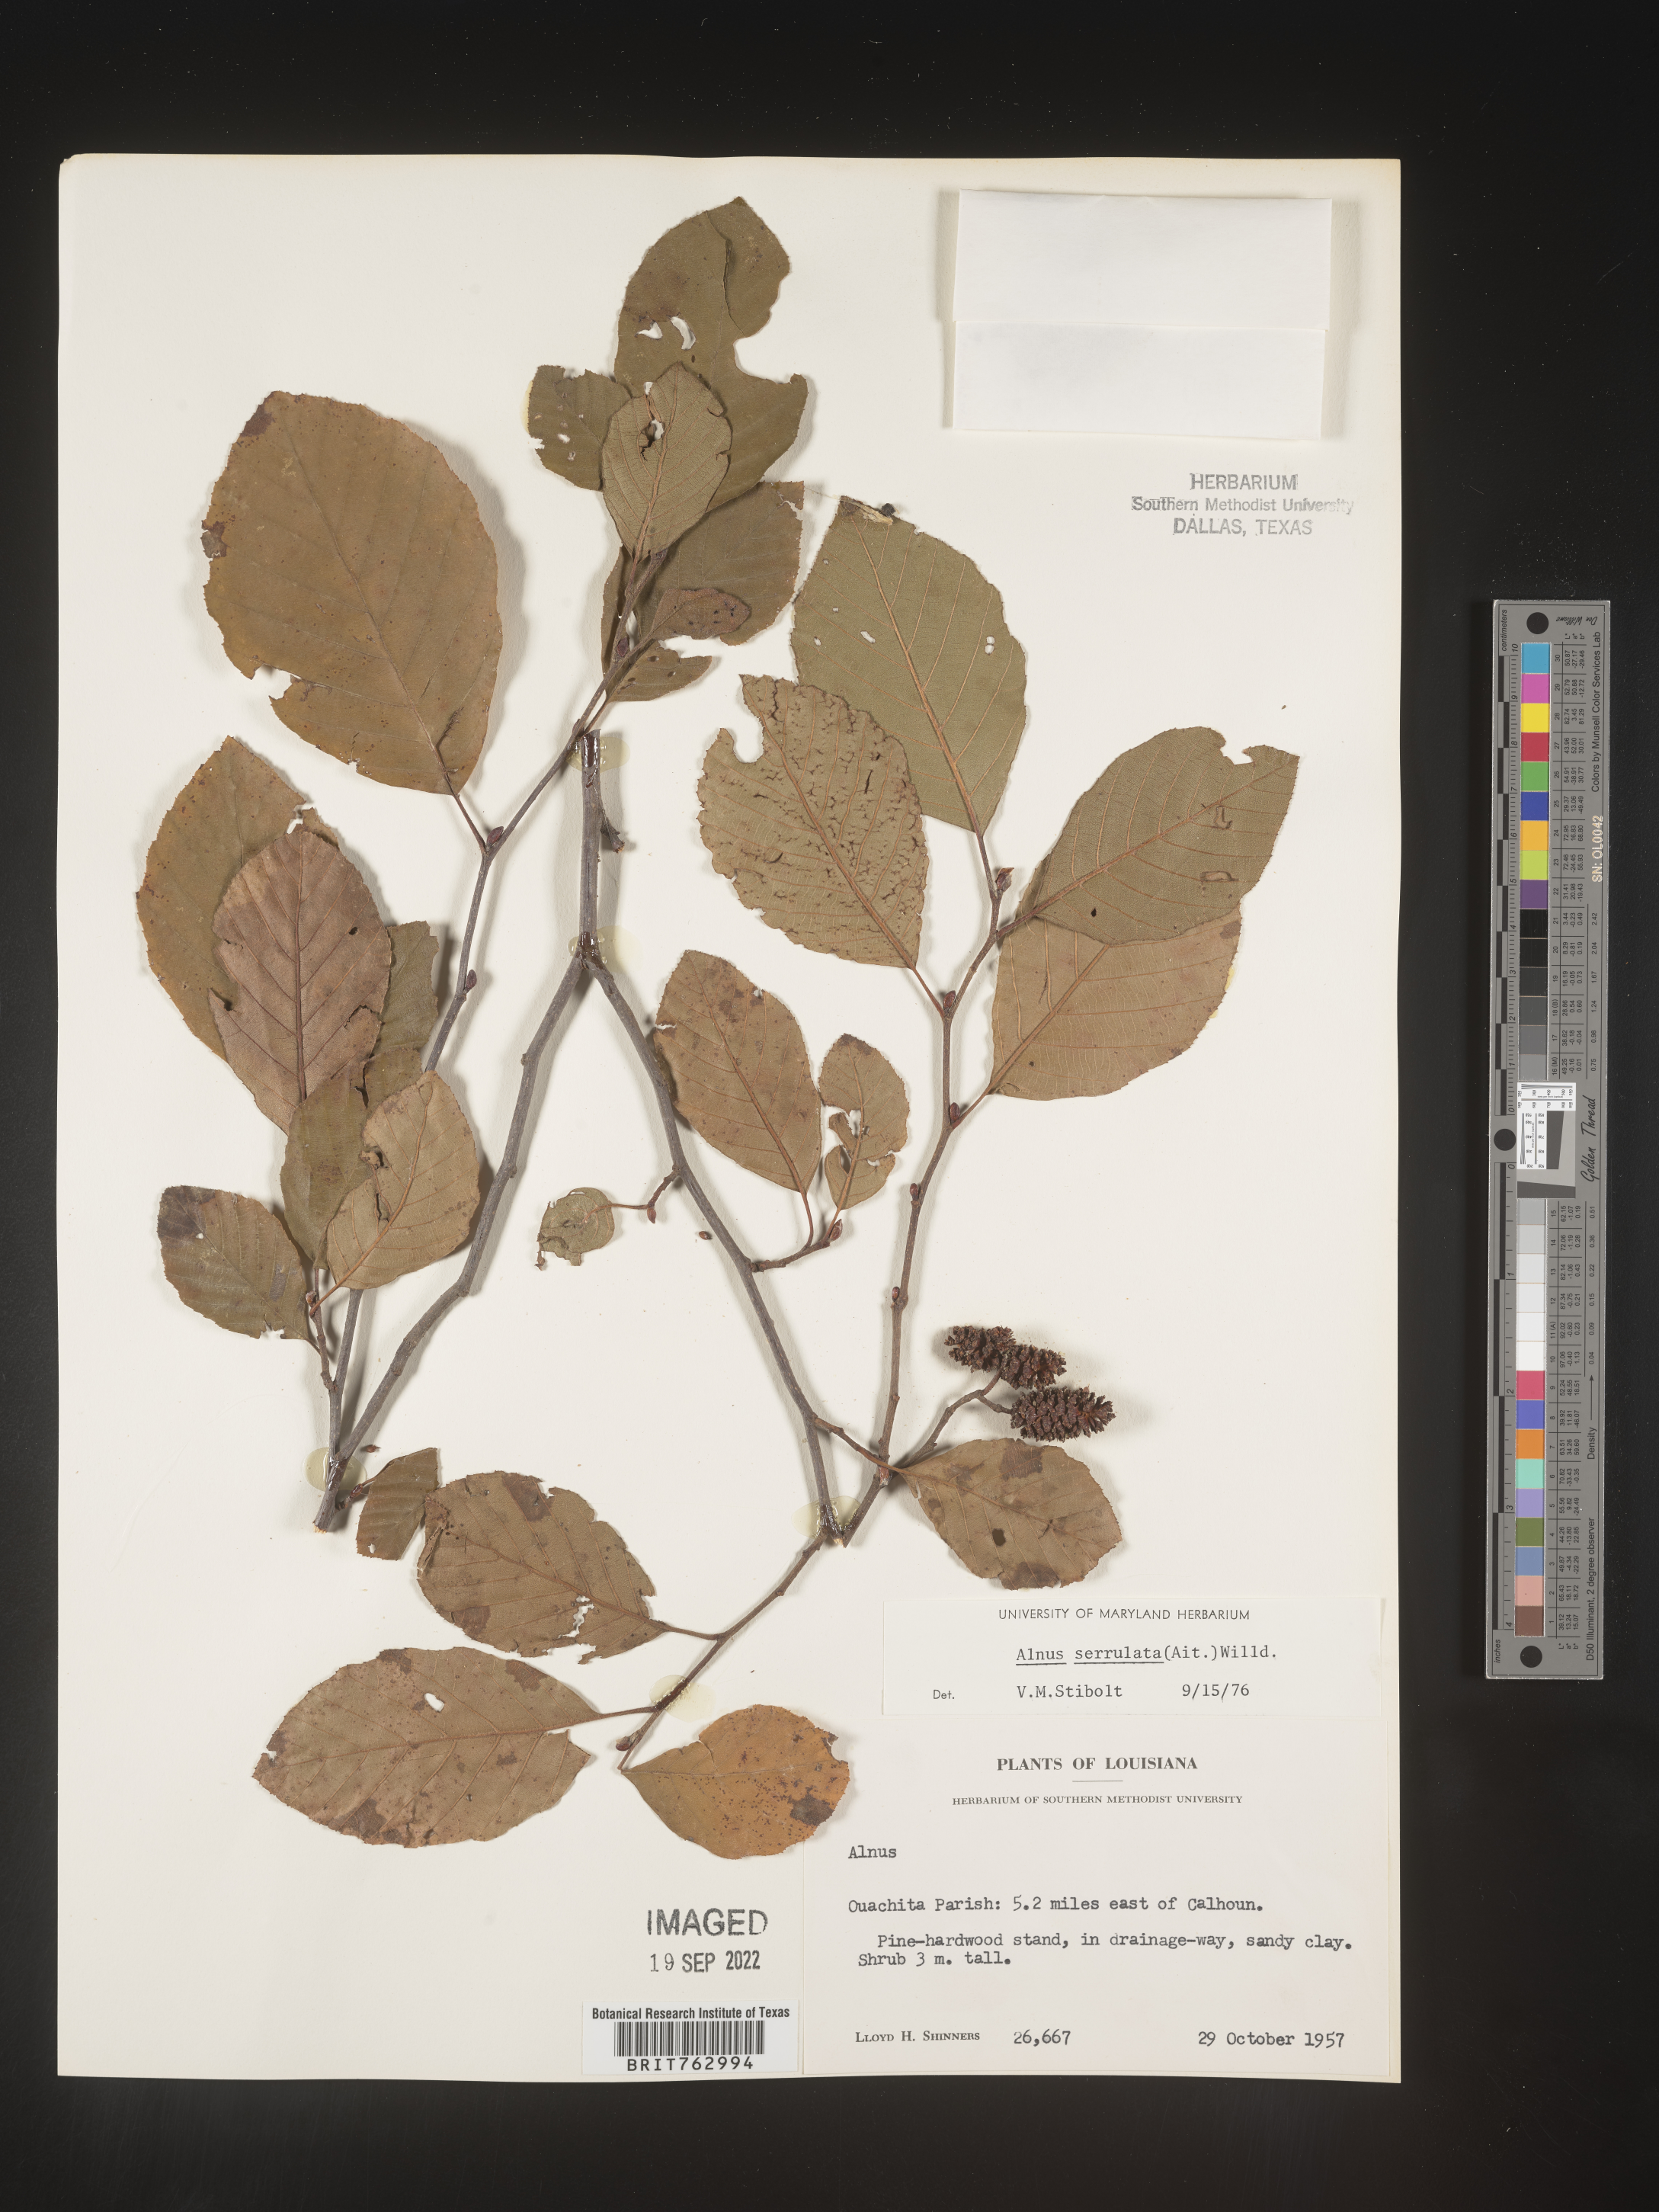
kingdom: Plantae
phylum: Tracheophyta
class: Magnoliopsida
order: Fagales
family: Betulaceae
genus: Alnus
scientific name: Alnus serrulata
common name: Hazel alder
